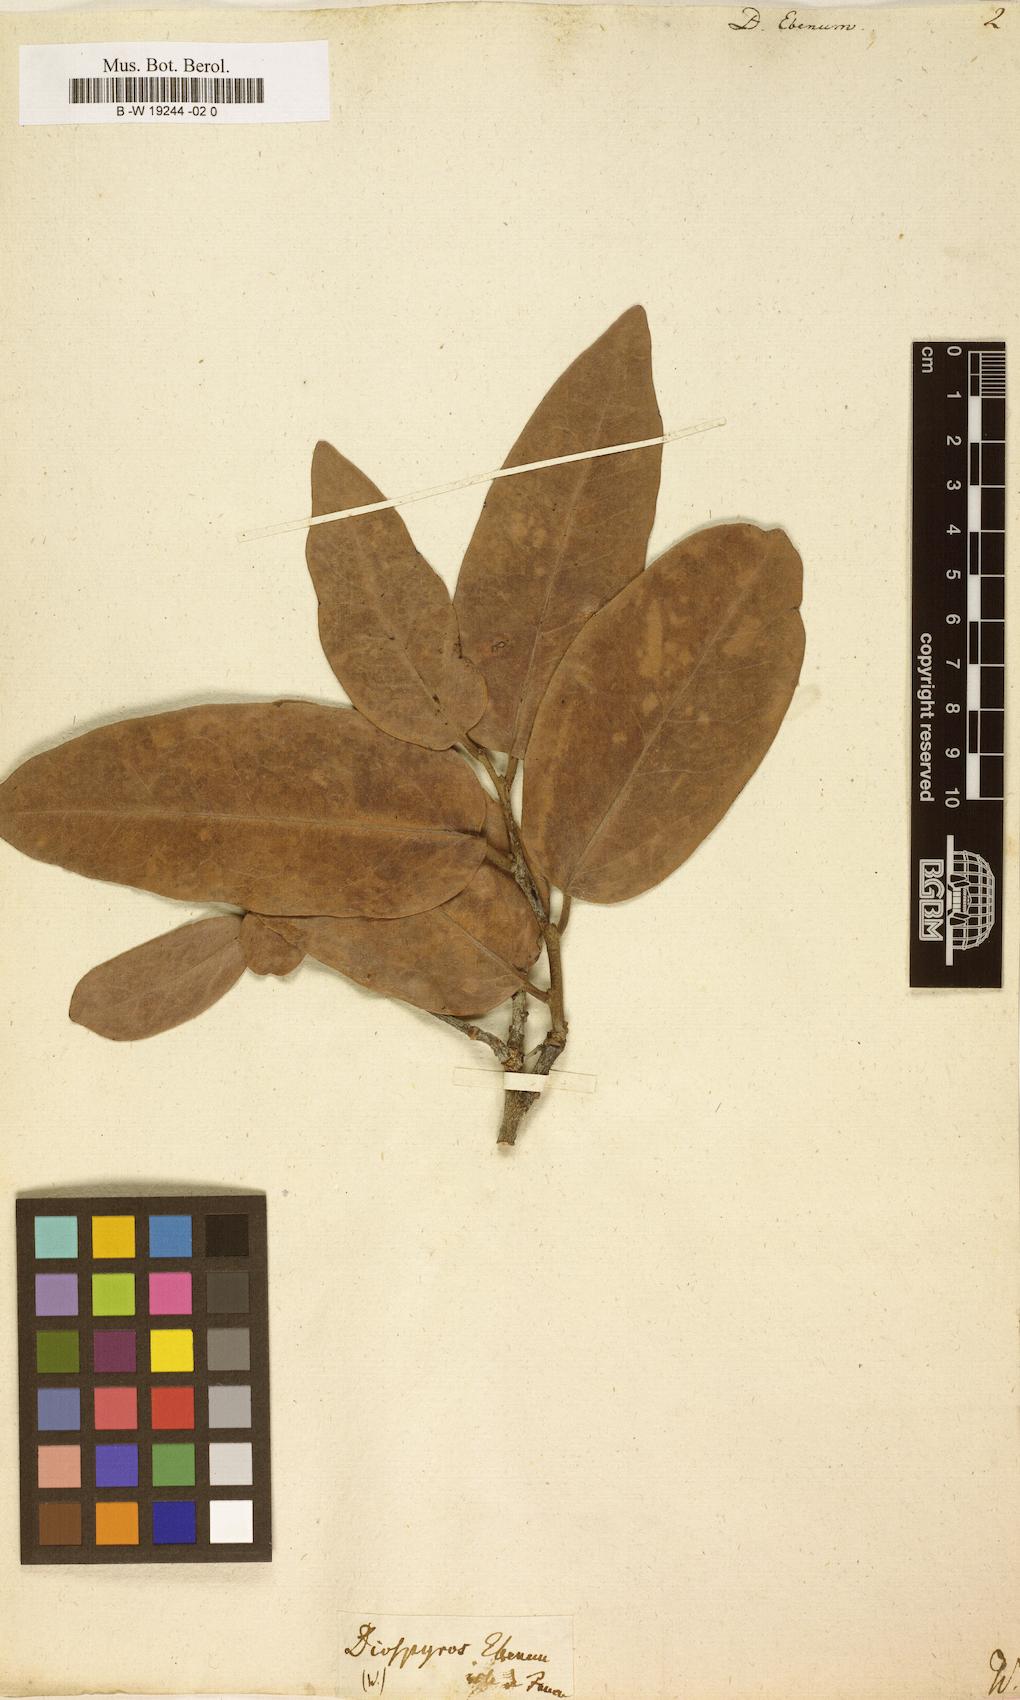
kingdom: Plantae
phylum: Tracheophyta
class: Magnoliopsida
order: Ericales
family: Ebenaceae
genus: Diospyros
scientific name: Diospyros ebenum
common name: Ebony
